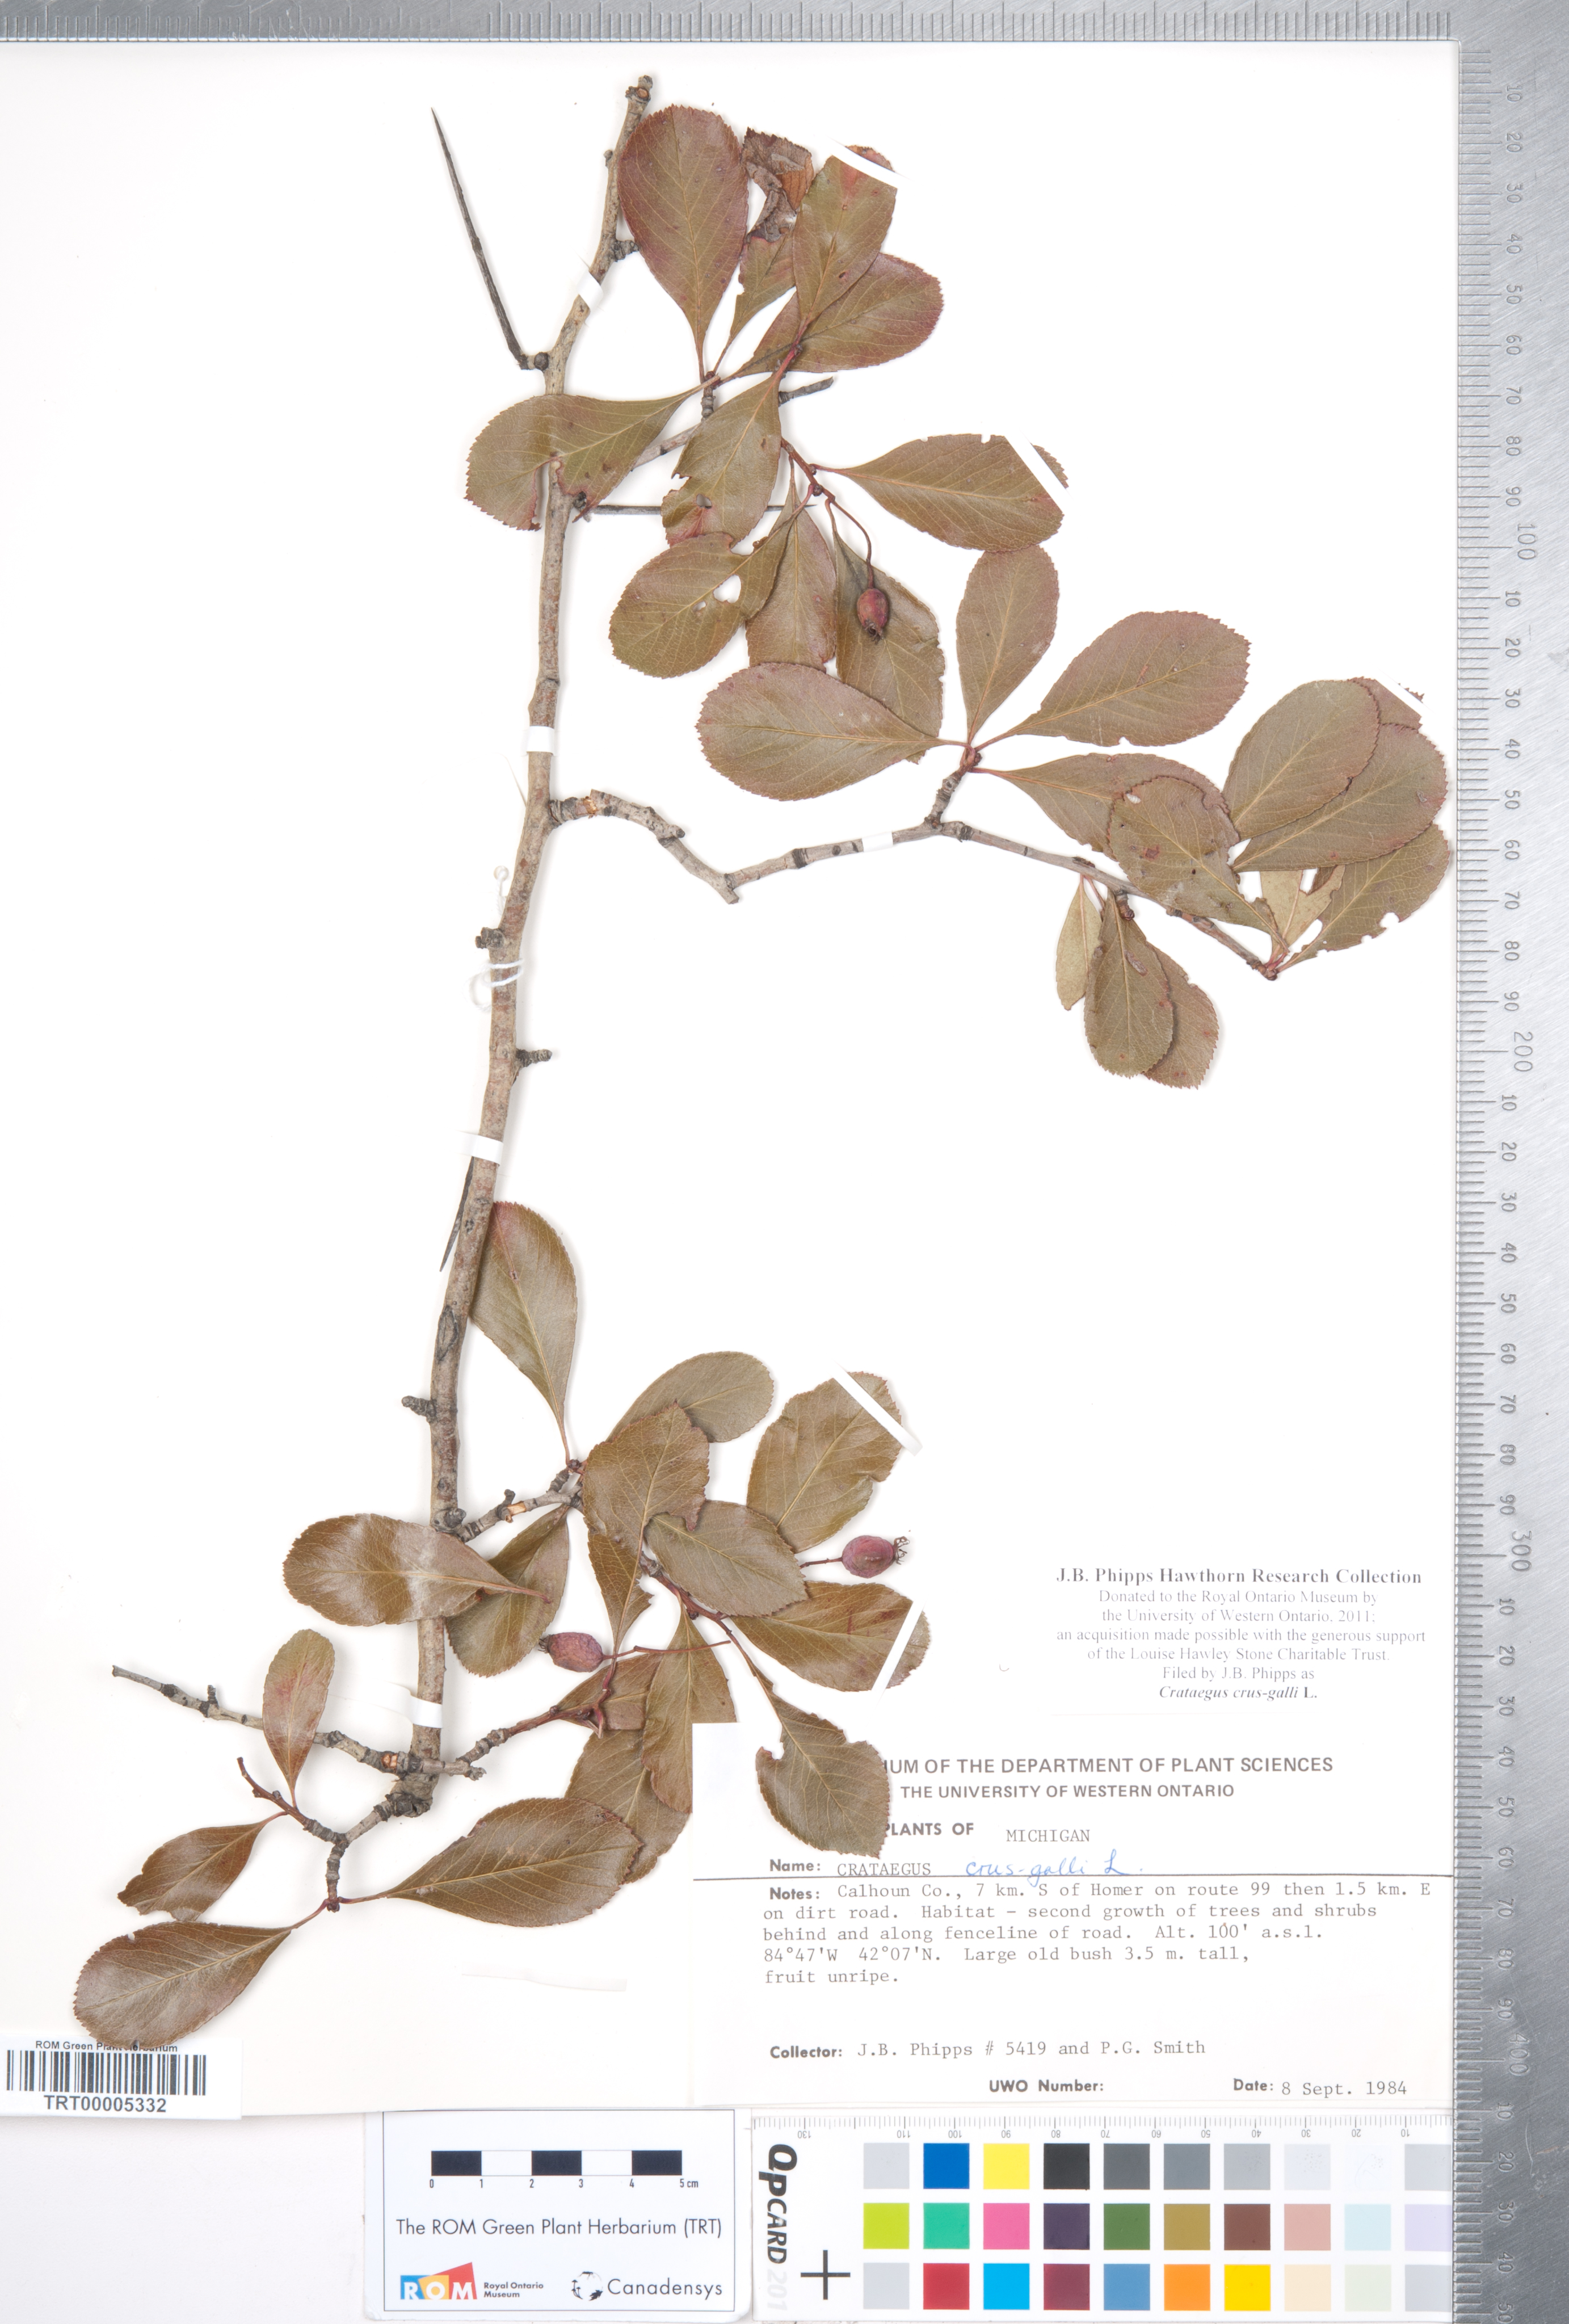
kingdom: Plantae
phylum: Tracheophyta
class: Magnoliopsida
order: Rosales
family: Rosaceae
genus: Crataegus
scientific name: Crataegus crus-galli
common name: Cockspurthorn
